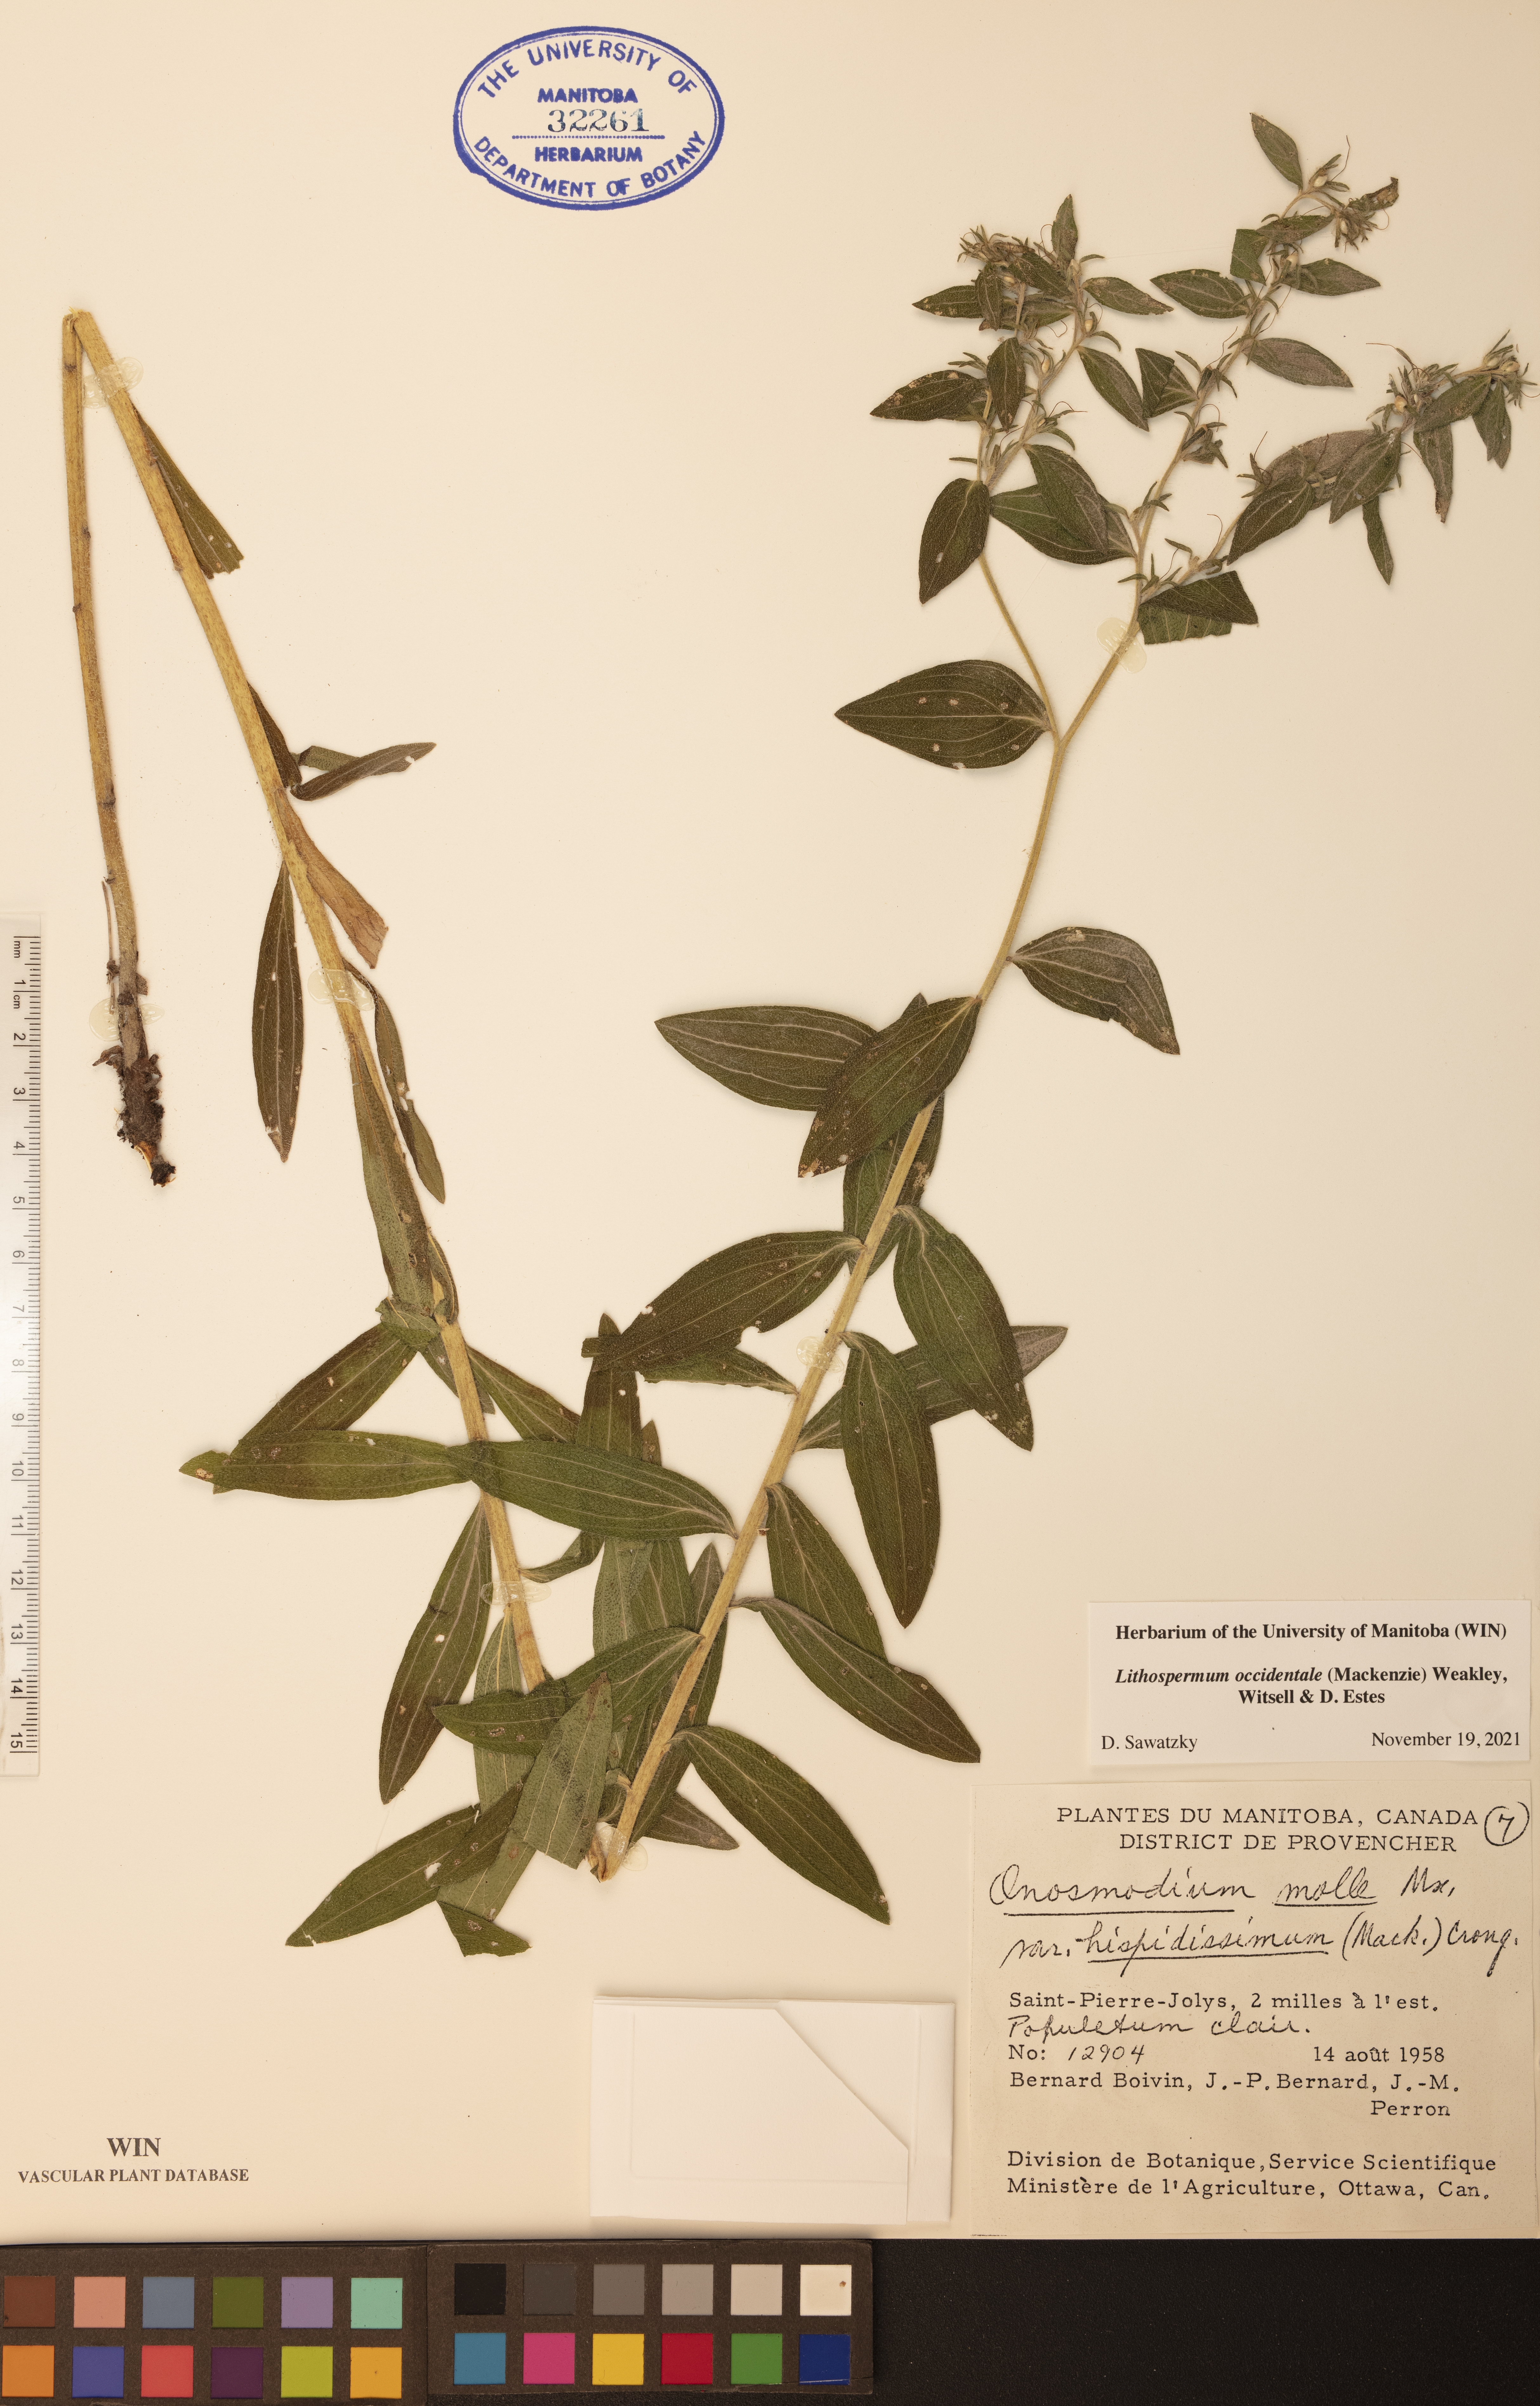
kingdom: Plantae
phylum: Tracheophyta
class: Magnoliopsida
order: Boraginales
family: Boraginaceae
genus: Lithospermum
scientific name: Lithospermum occidentale
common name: Western false gromwell
